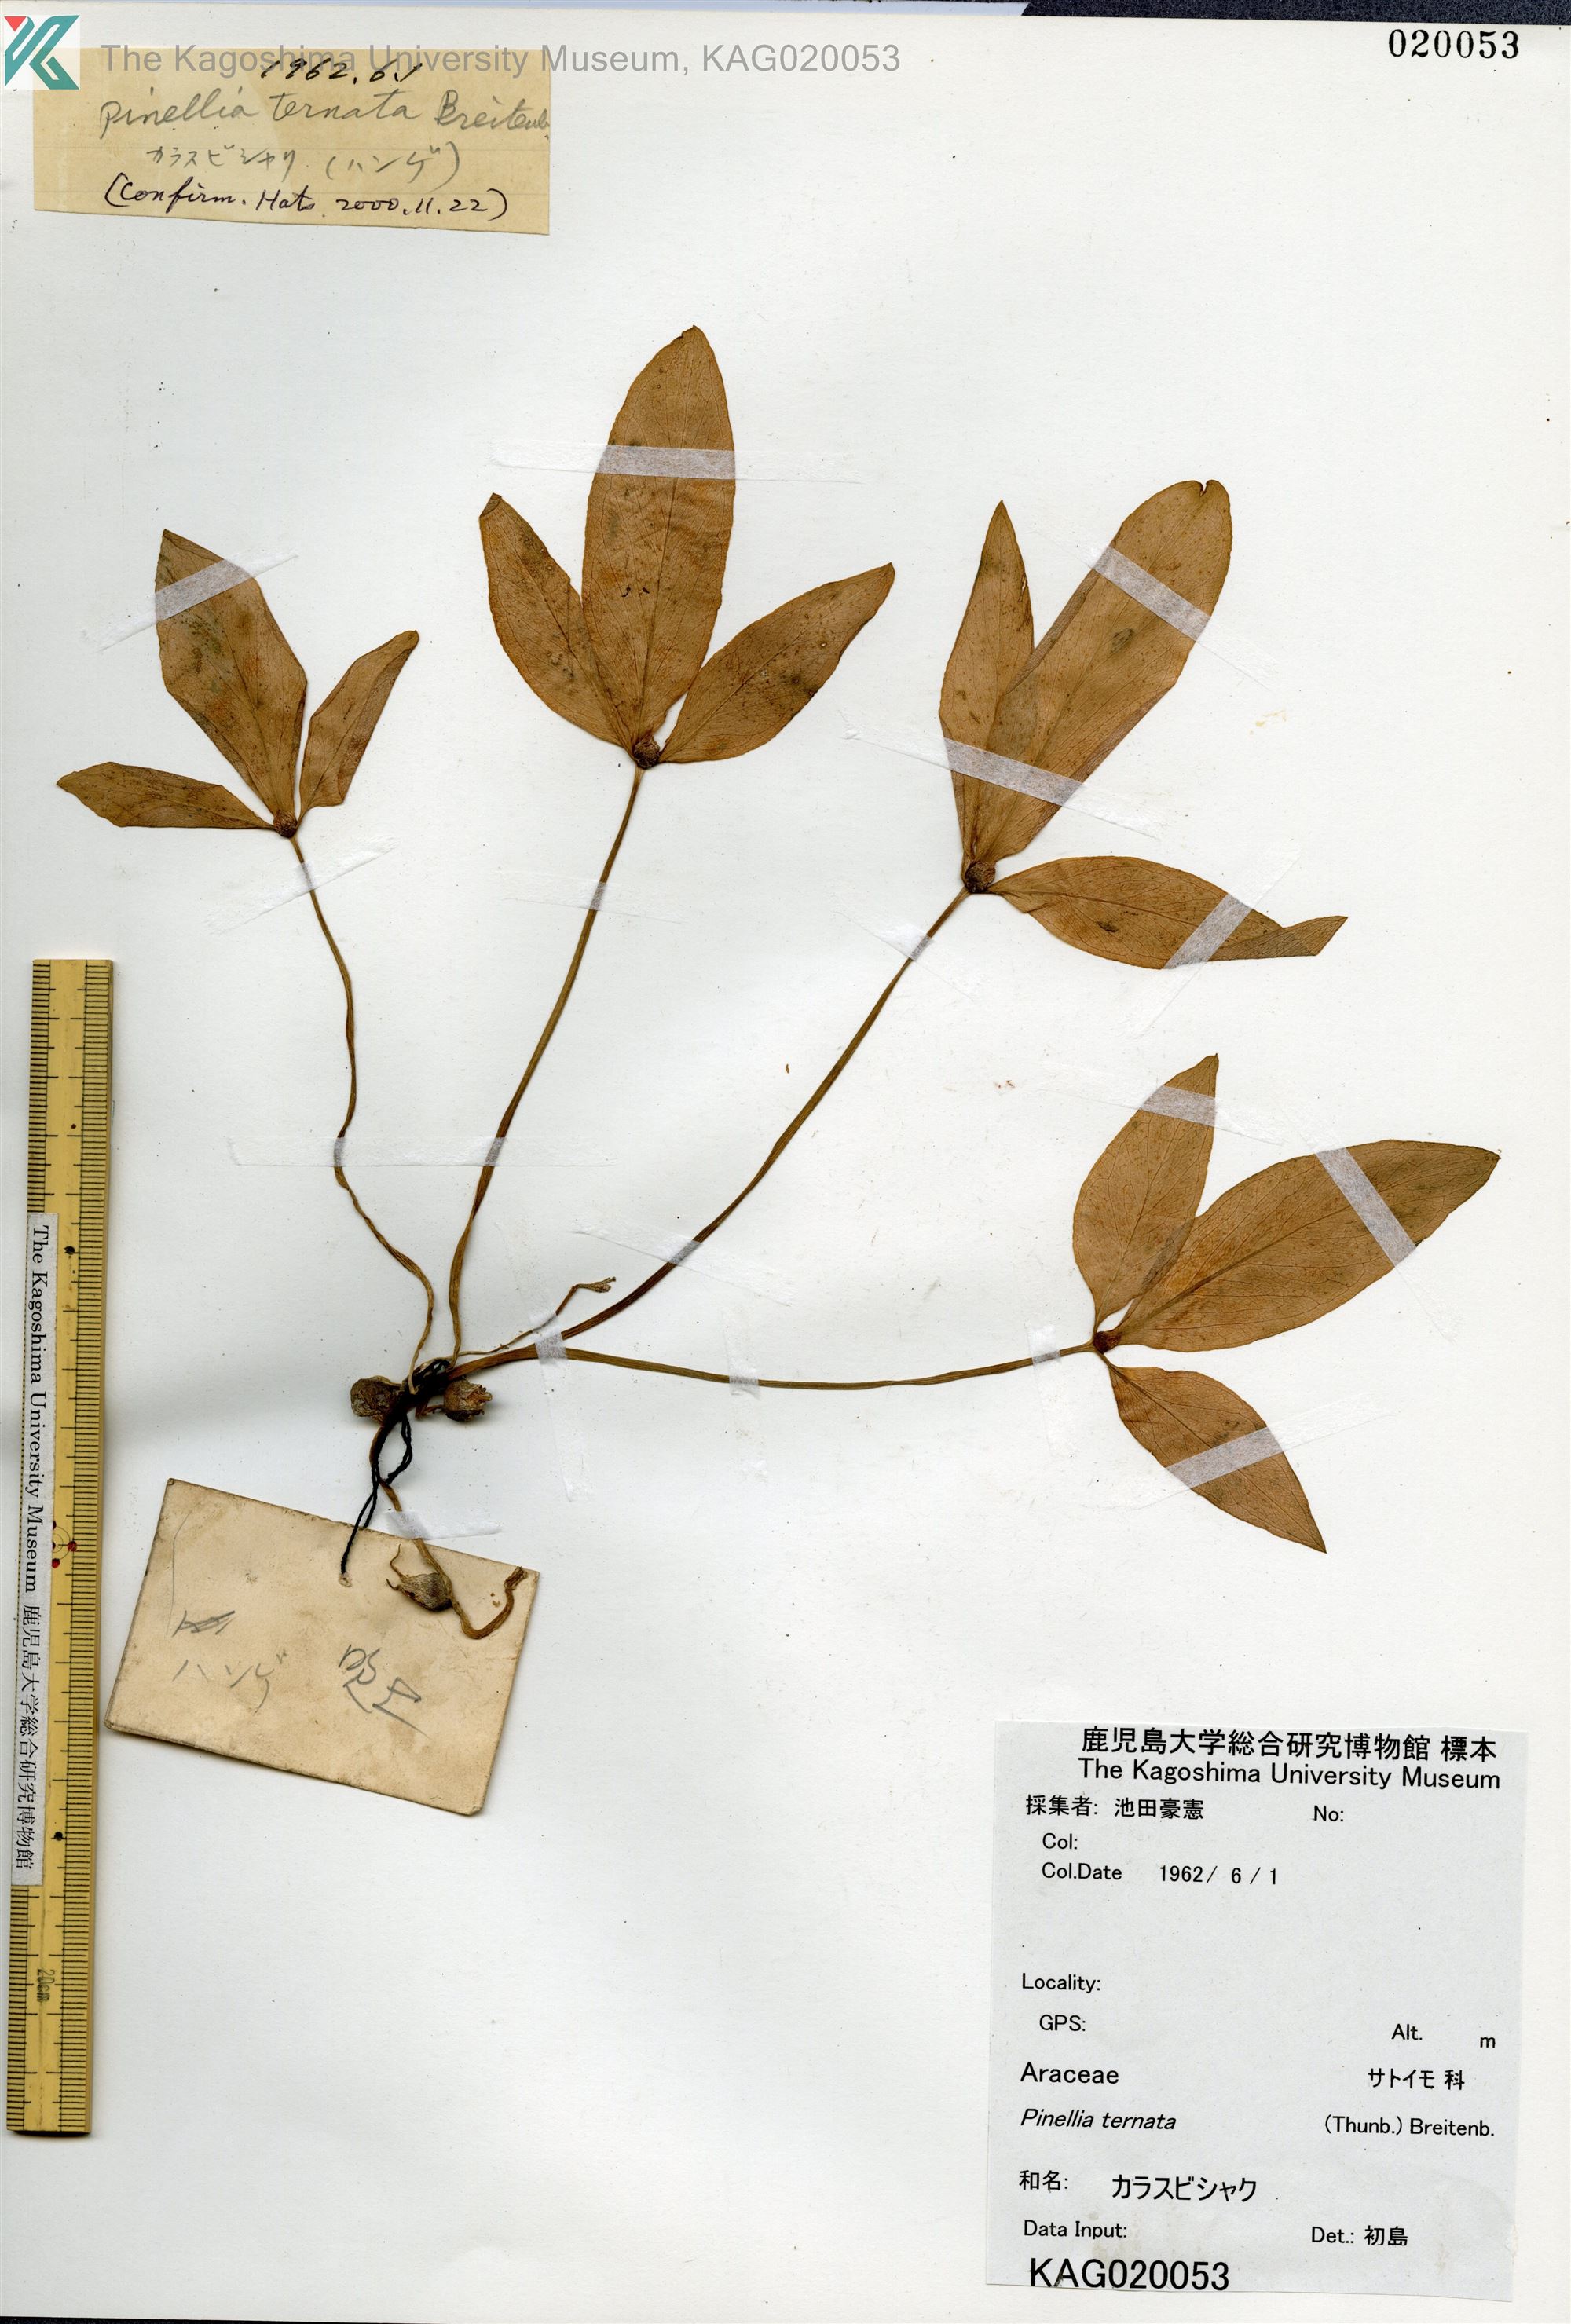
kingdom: Plantae
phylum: Tracheophyta
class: Liliopsida
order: Alismatales
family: Araceae
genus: Pinellia
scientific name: Pinellia ternata
